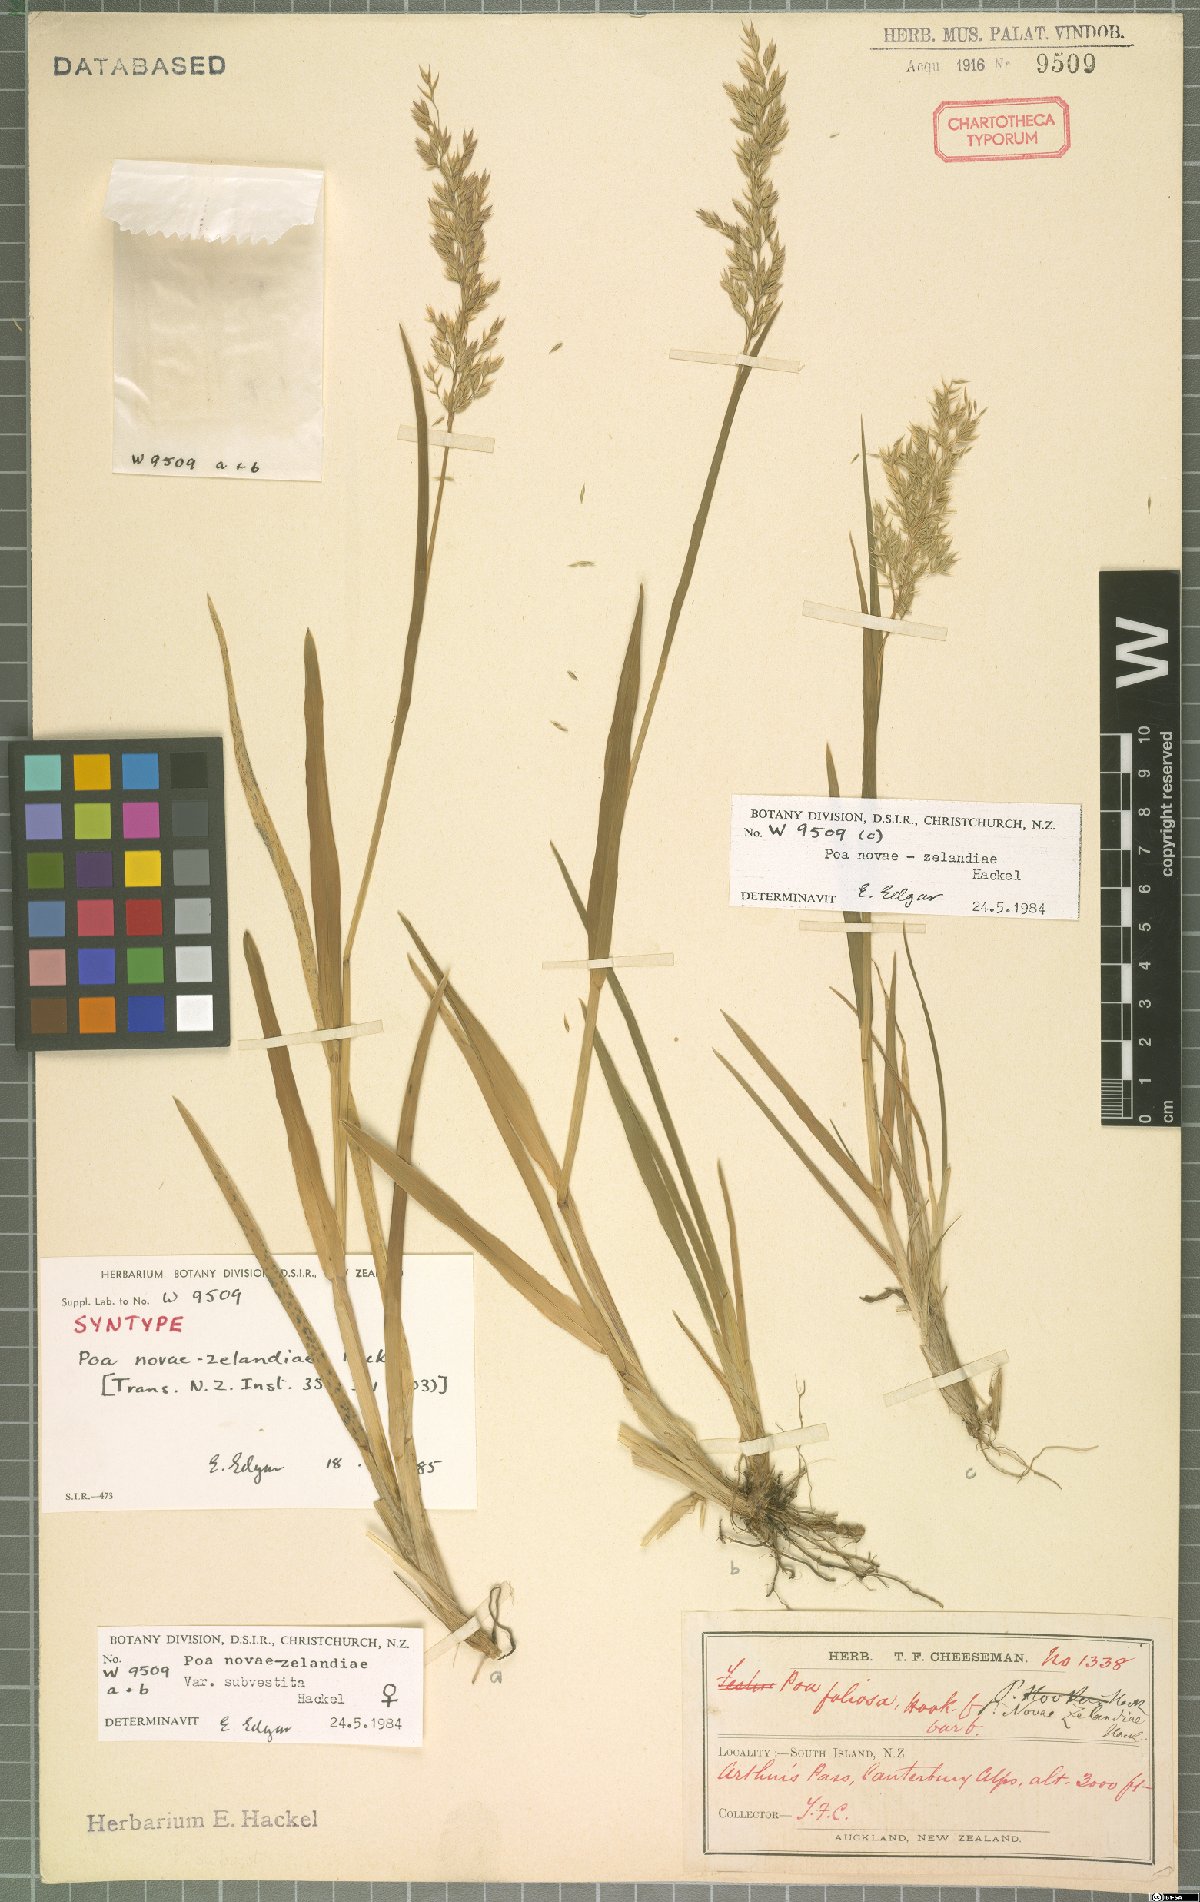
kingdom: Plantae
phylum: Tracheophyta
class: Liliopsida
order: Poales
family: Poaceae
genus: Poa
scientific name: Poa novae-zelandiae
